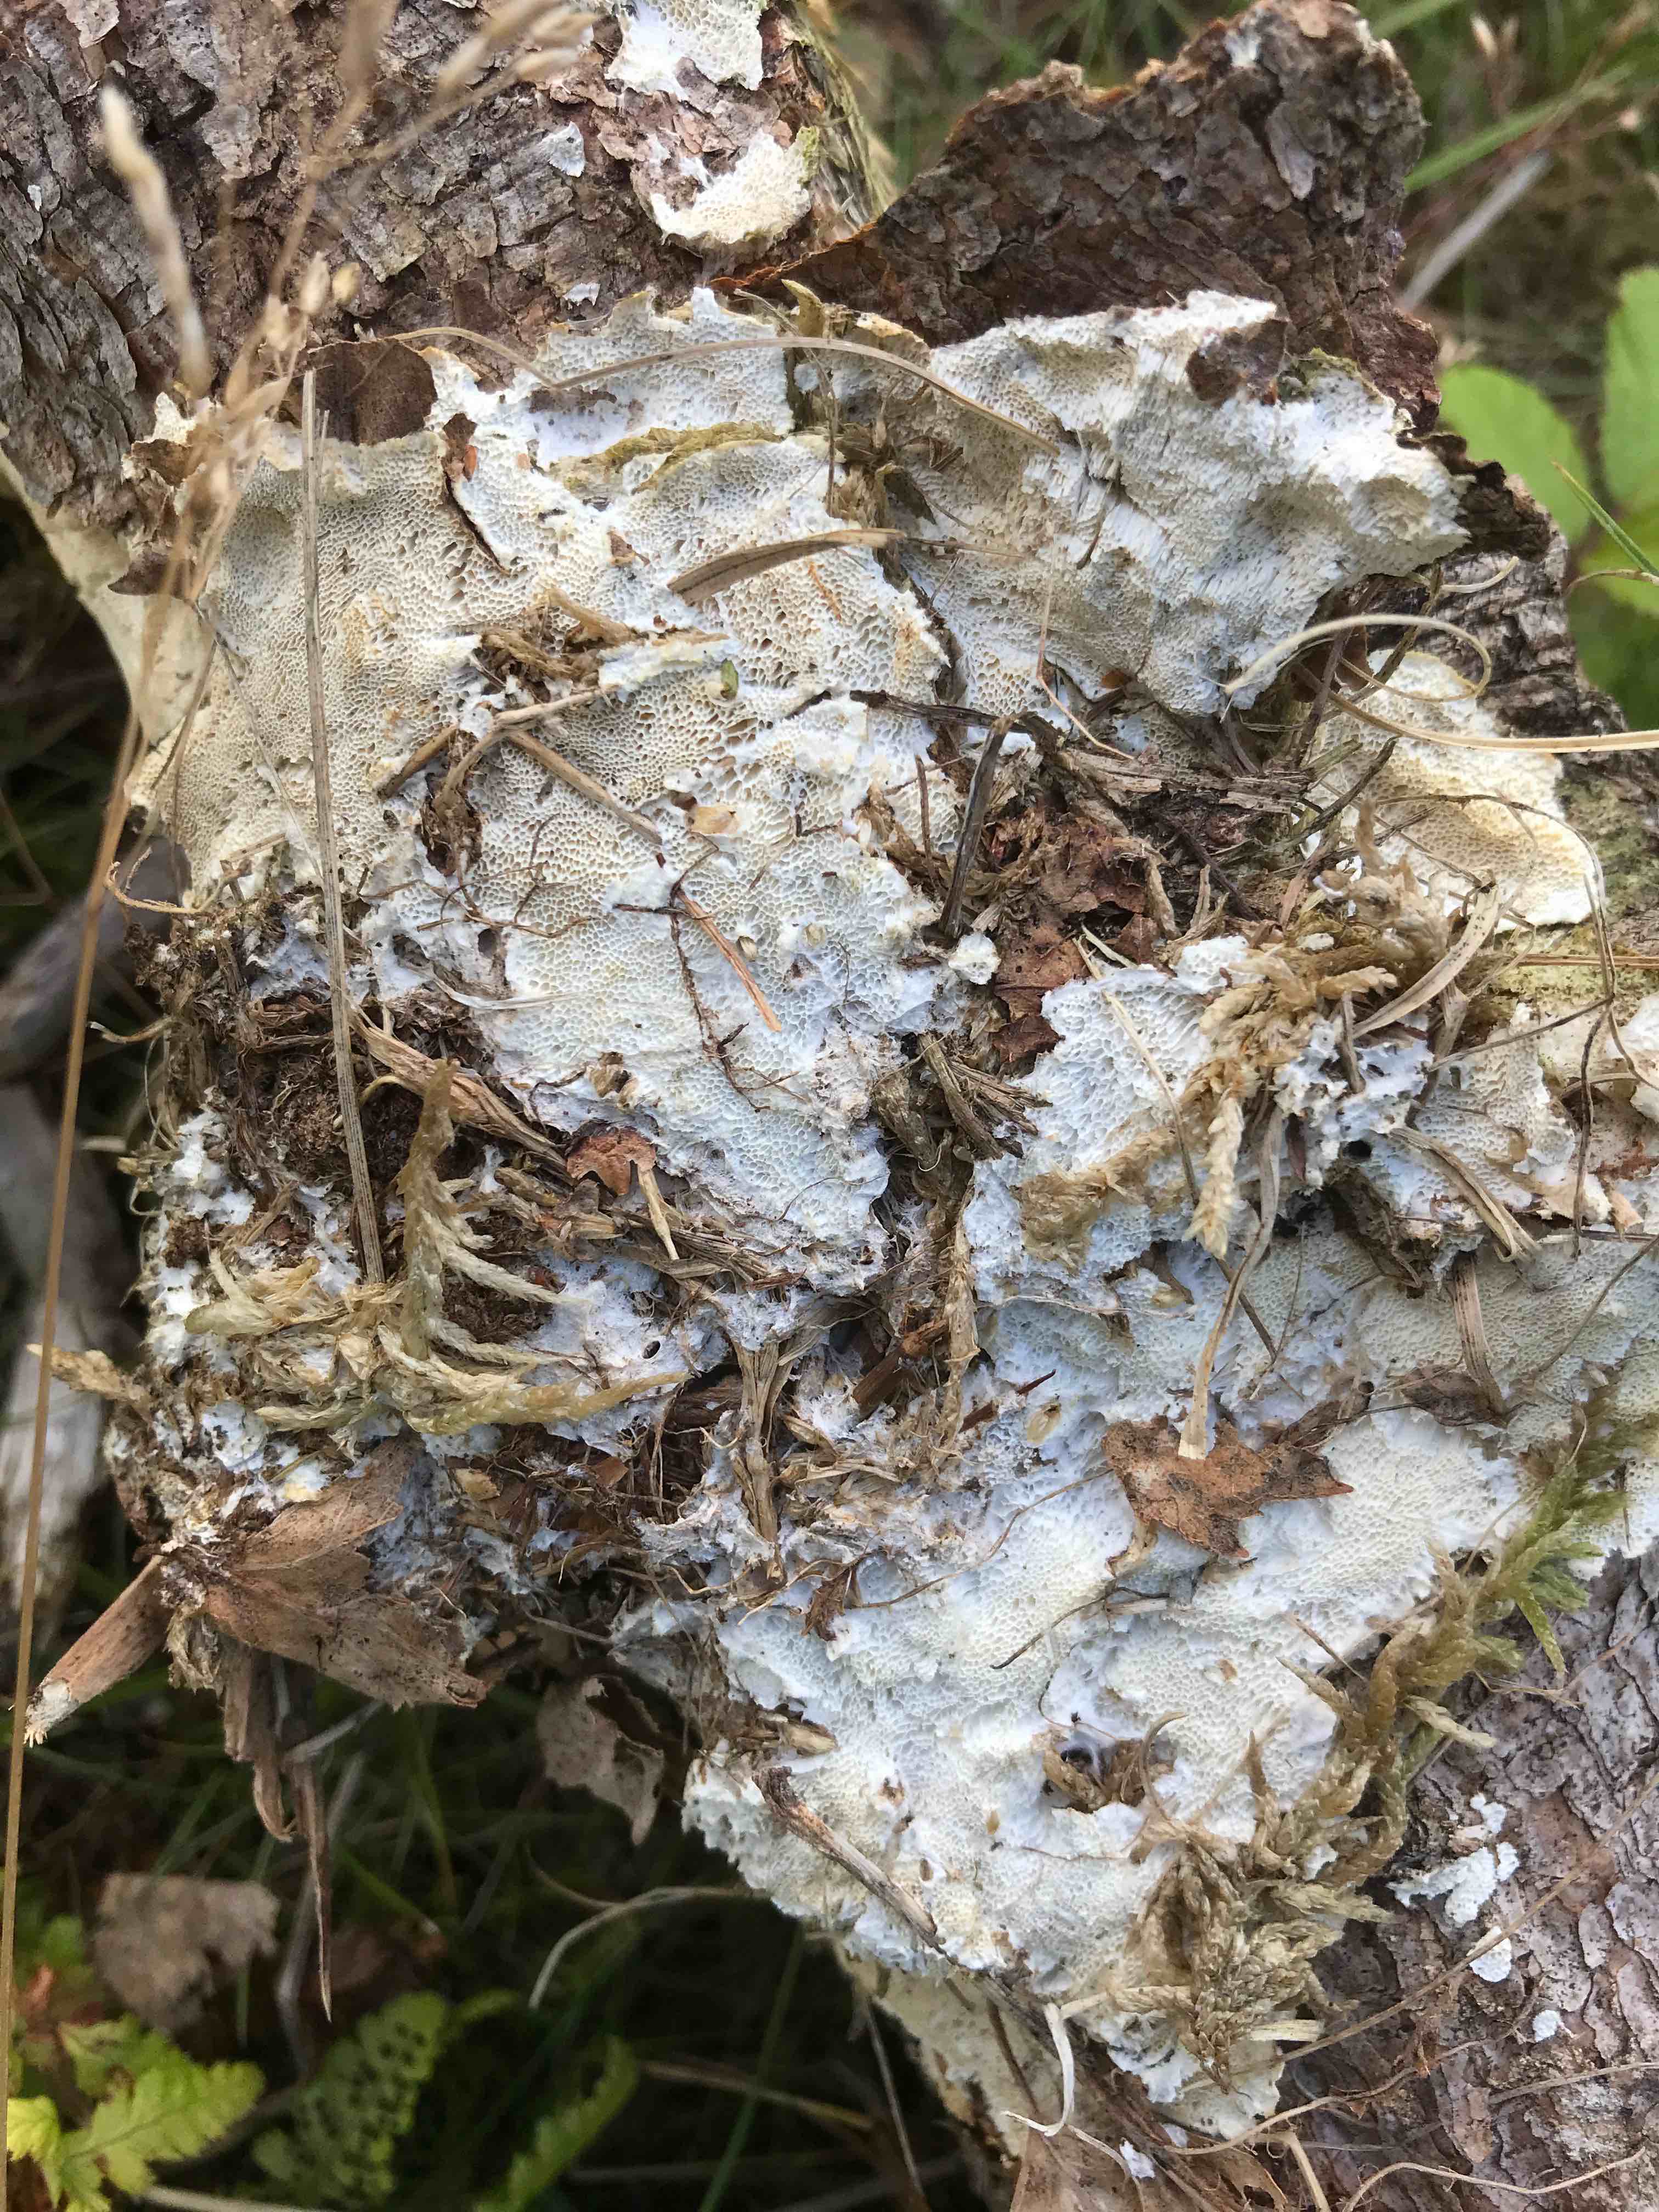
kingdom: Fungi
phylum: Basidiomycota
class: Agaricomycetes
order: Polyporales
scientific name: Polyporales
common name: poresvampordenen
